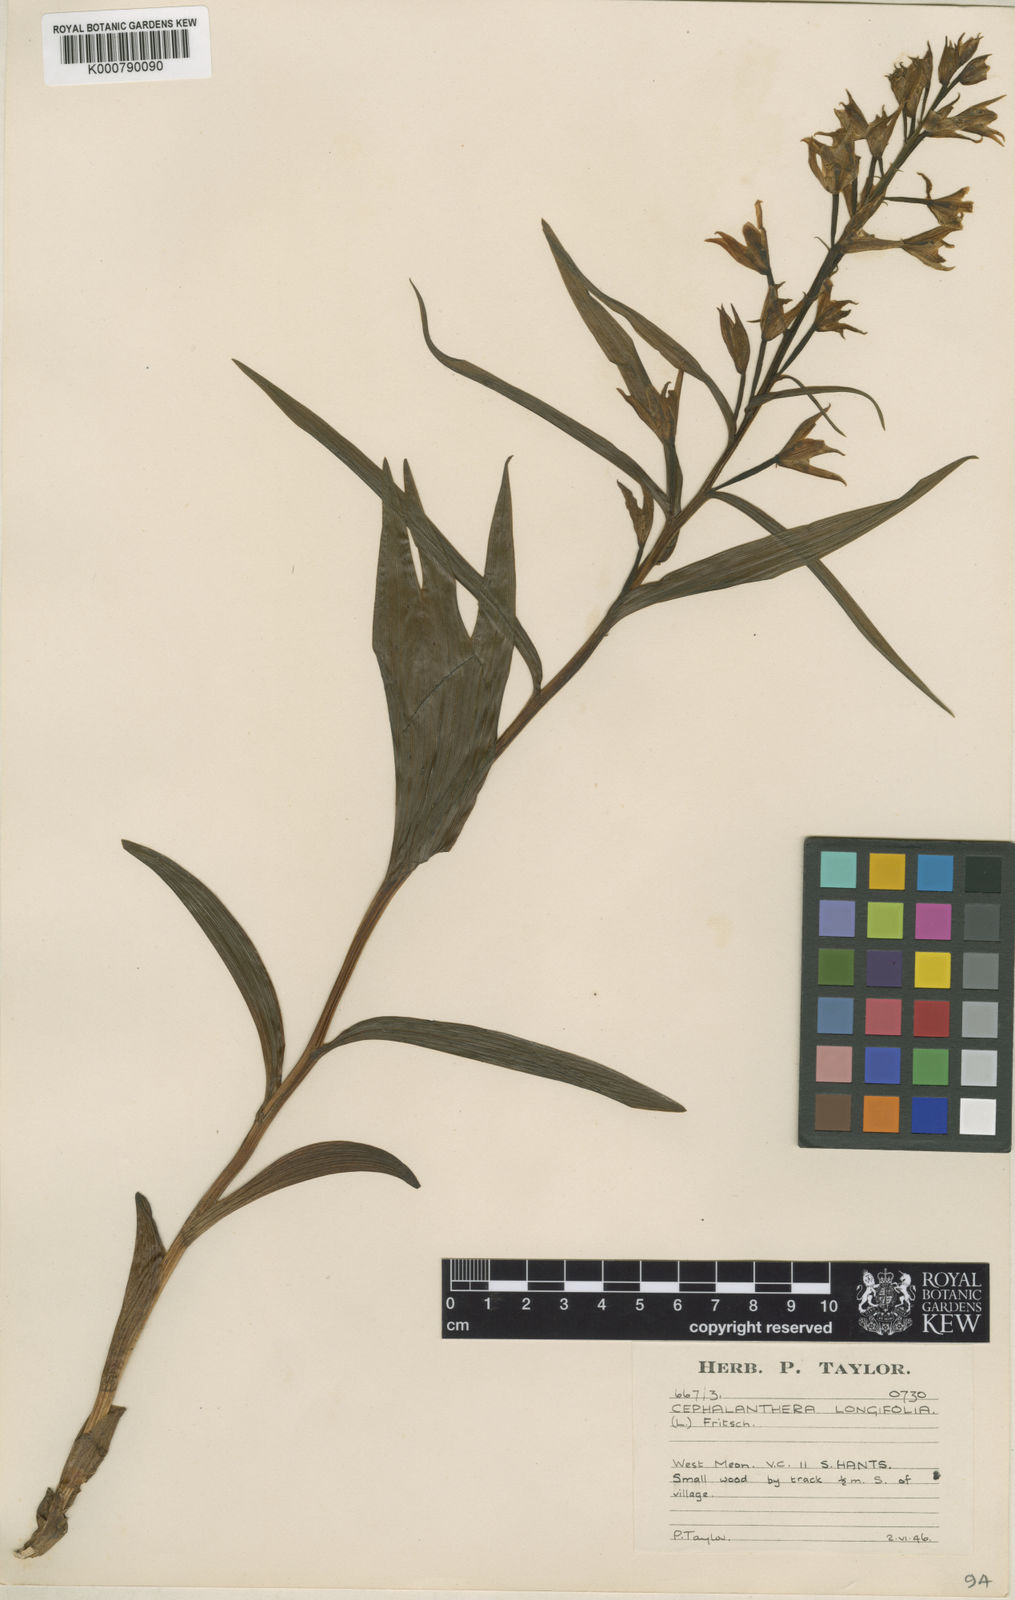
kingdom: Plantae
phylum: Tracheophyta
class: Liliopsida
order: Asparagales
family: Orchidaceae
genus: Cephalanthera
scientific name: Cephalanthera longifolia
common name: Narrow-leaved helleborine
